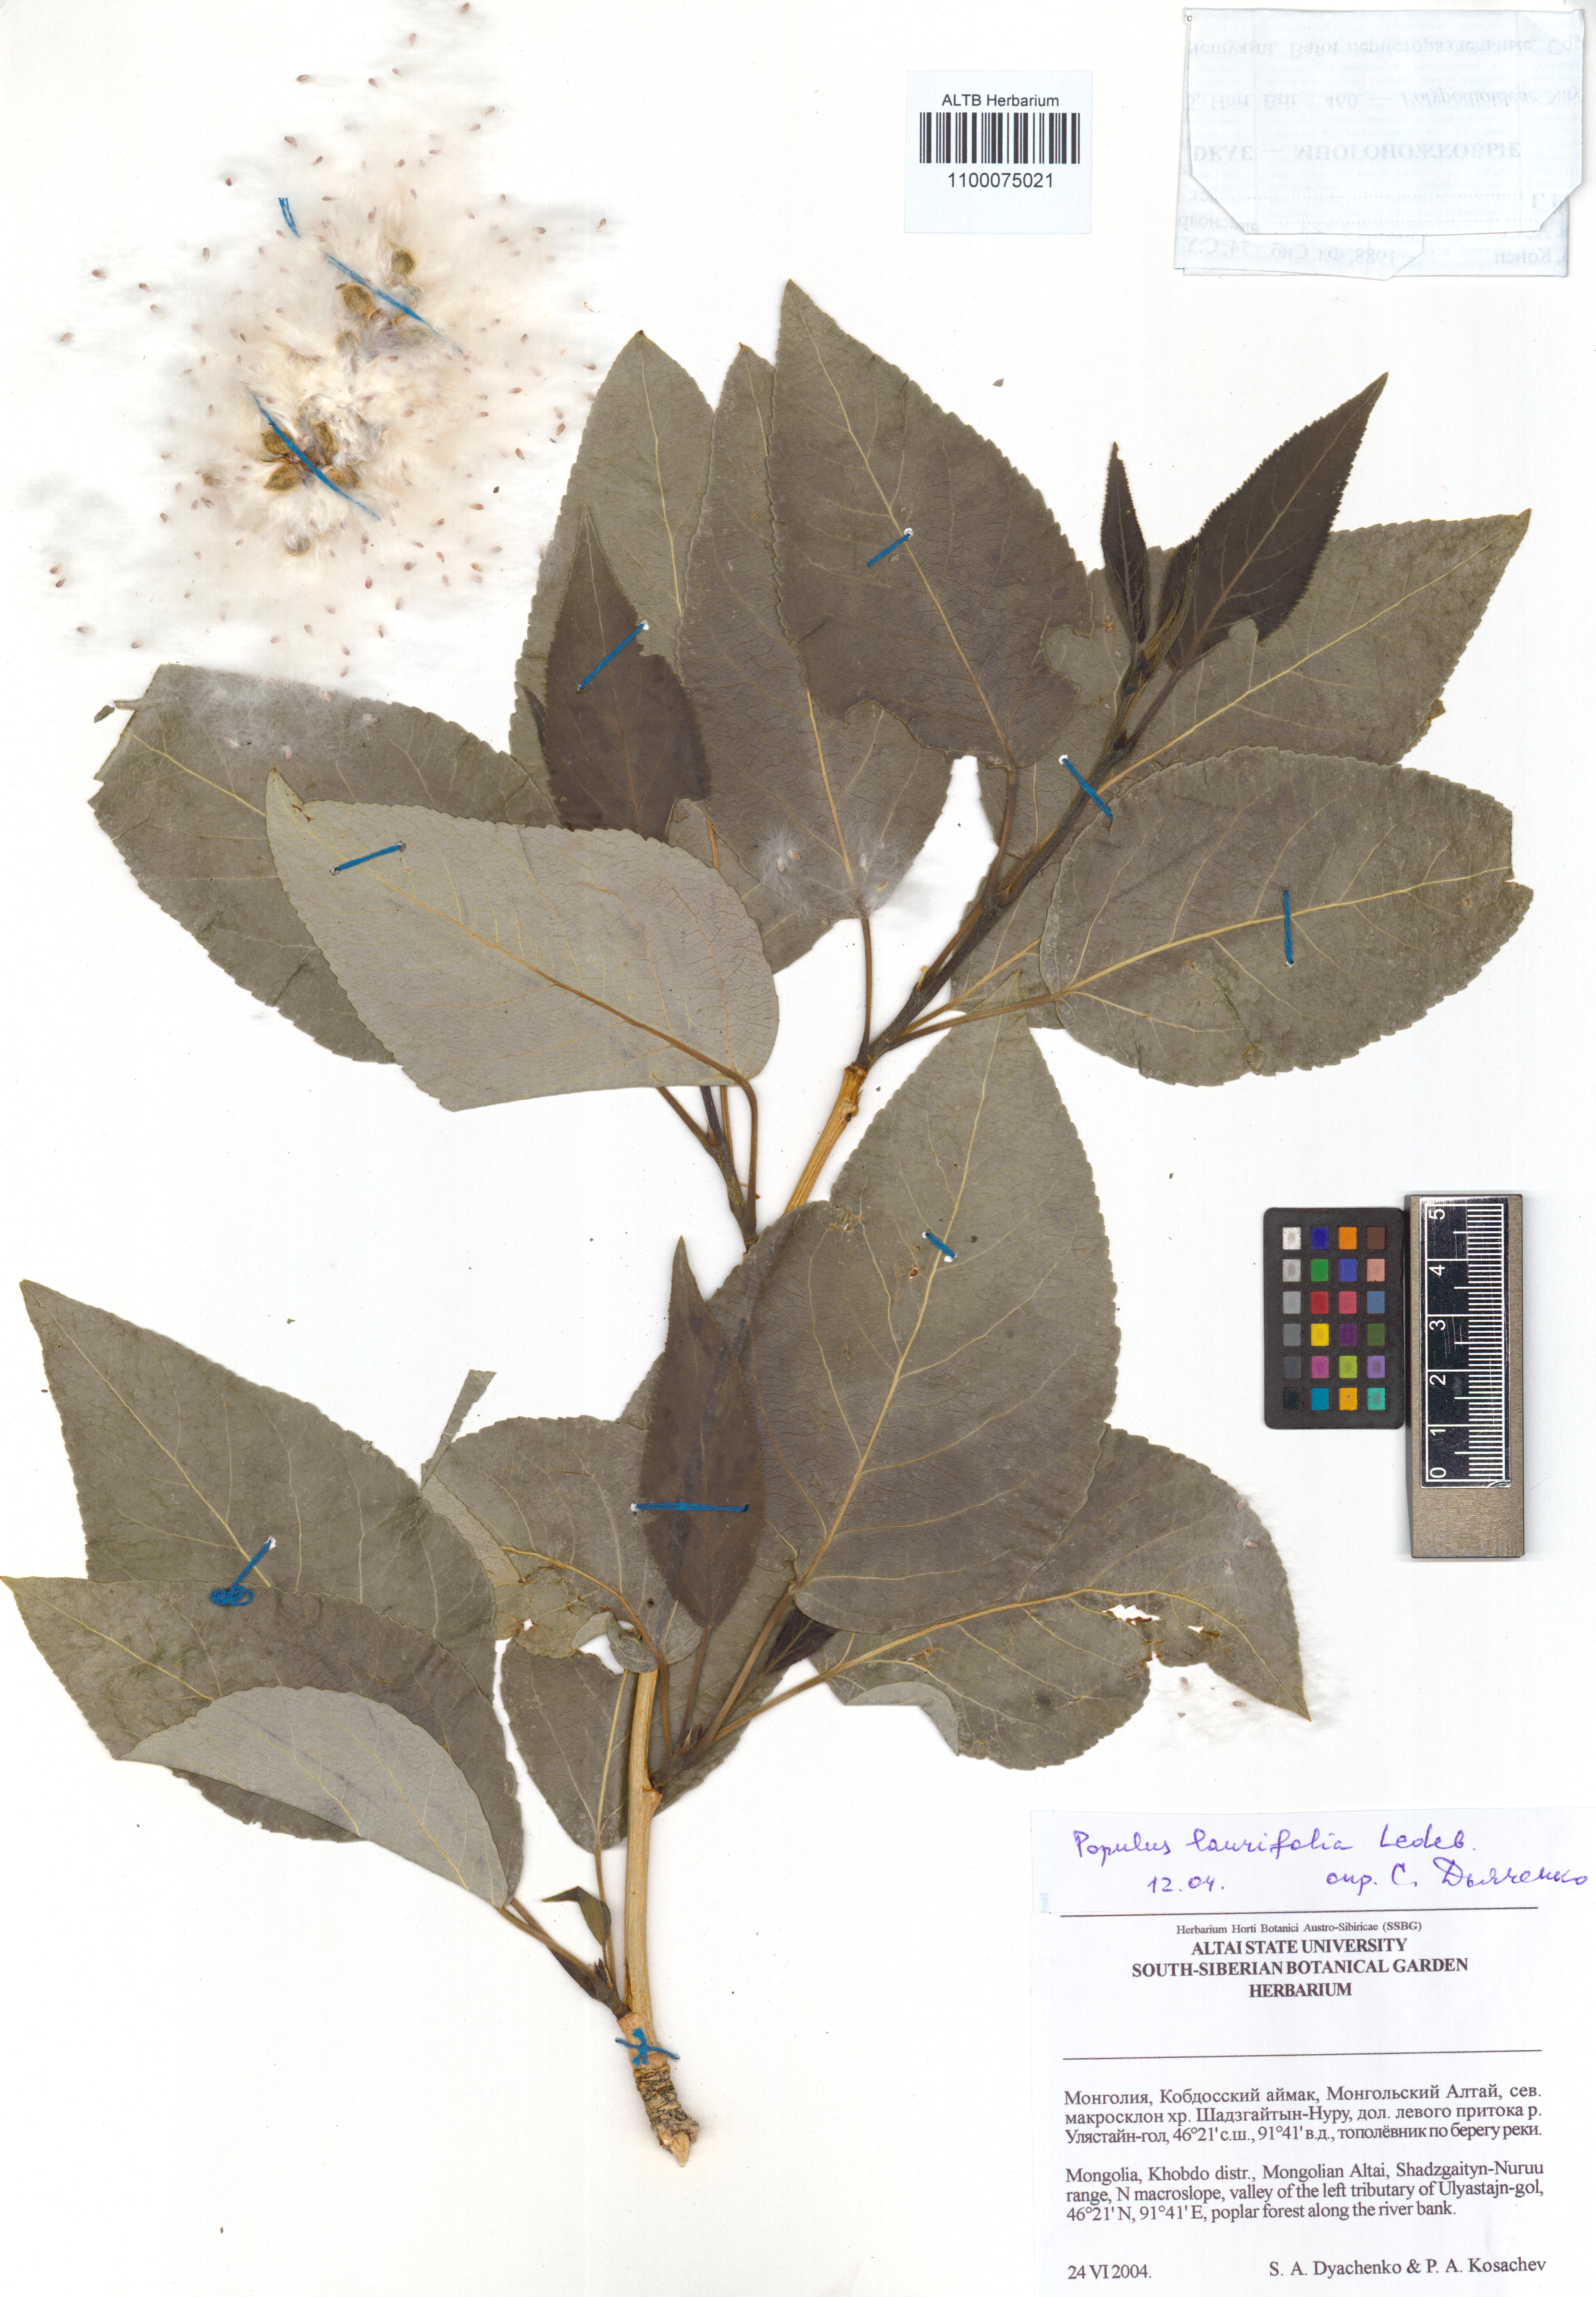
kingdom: Plantae
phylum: Tracheophyta
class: Magnoliopsida
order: Malpighiales
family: Salicaceae
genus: Populus
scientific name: Populus laurifolia
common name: Laurel-leaf poplar
